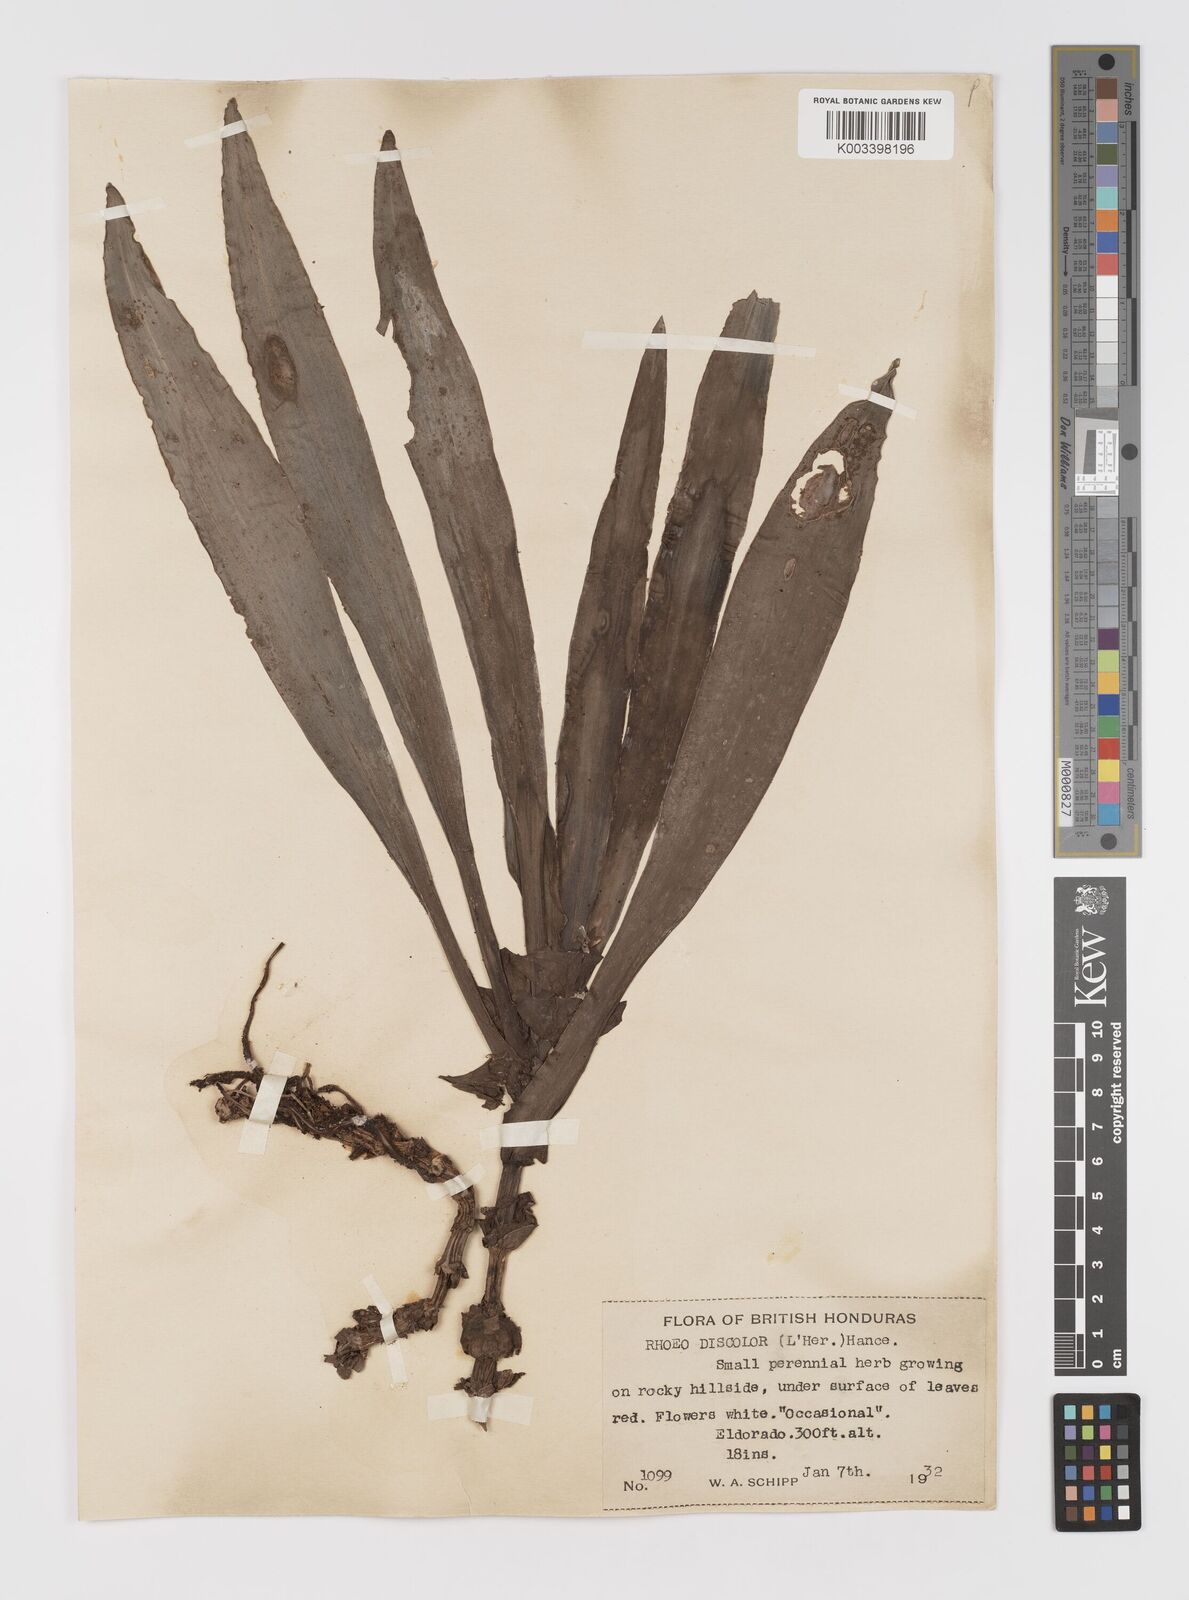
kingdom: Plantae
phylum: Tracheophyta
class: Liliopsida
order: Commelinales
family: Commelinaceae
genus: Tradescantia
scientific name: Tradescantia spathacea
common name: Boatlily
